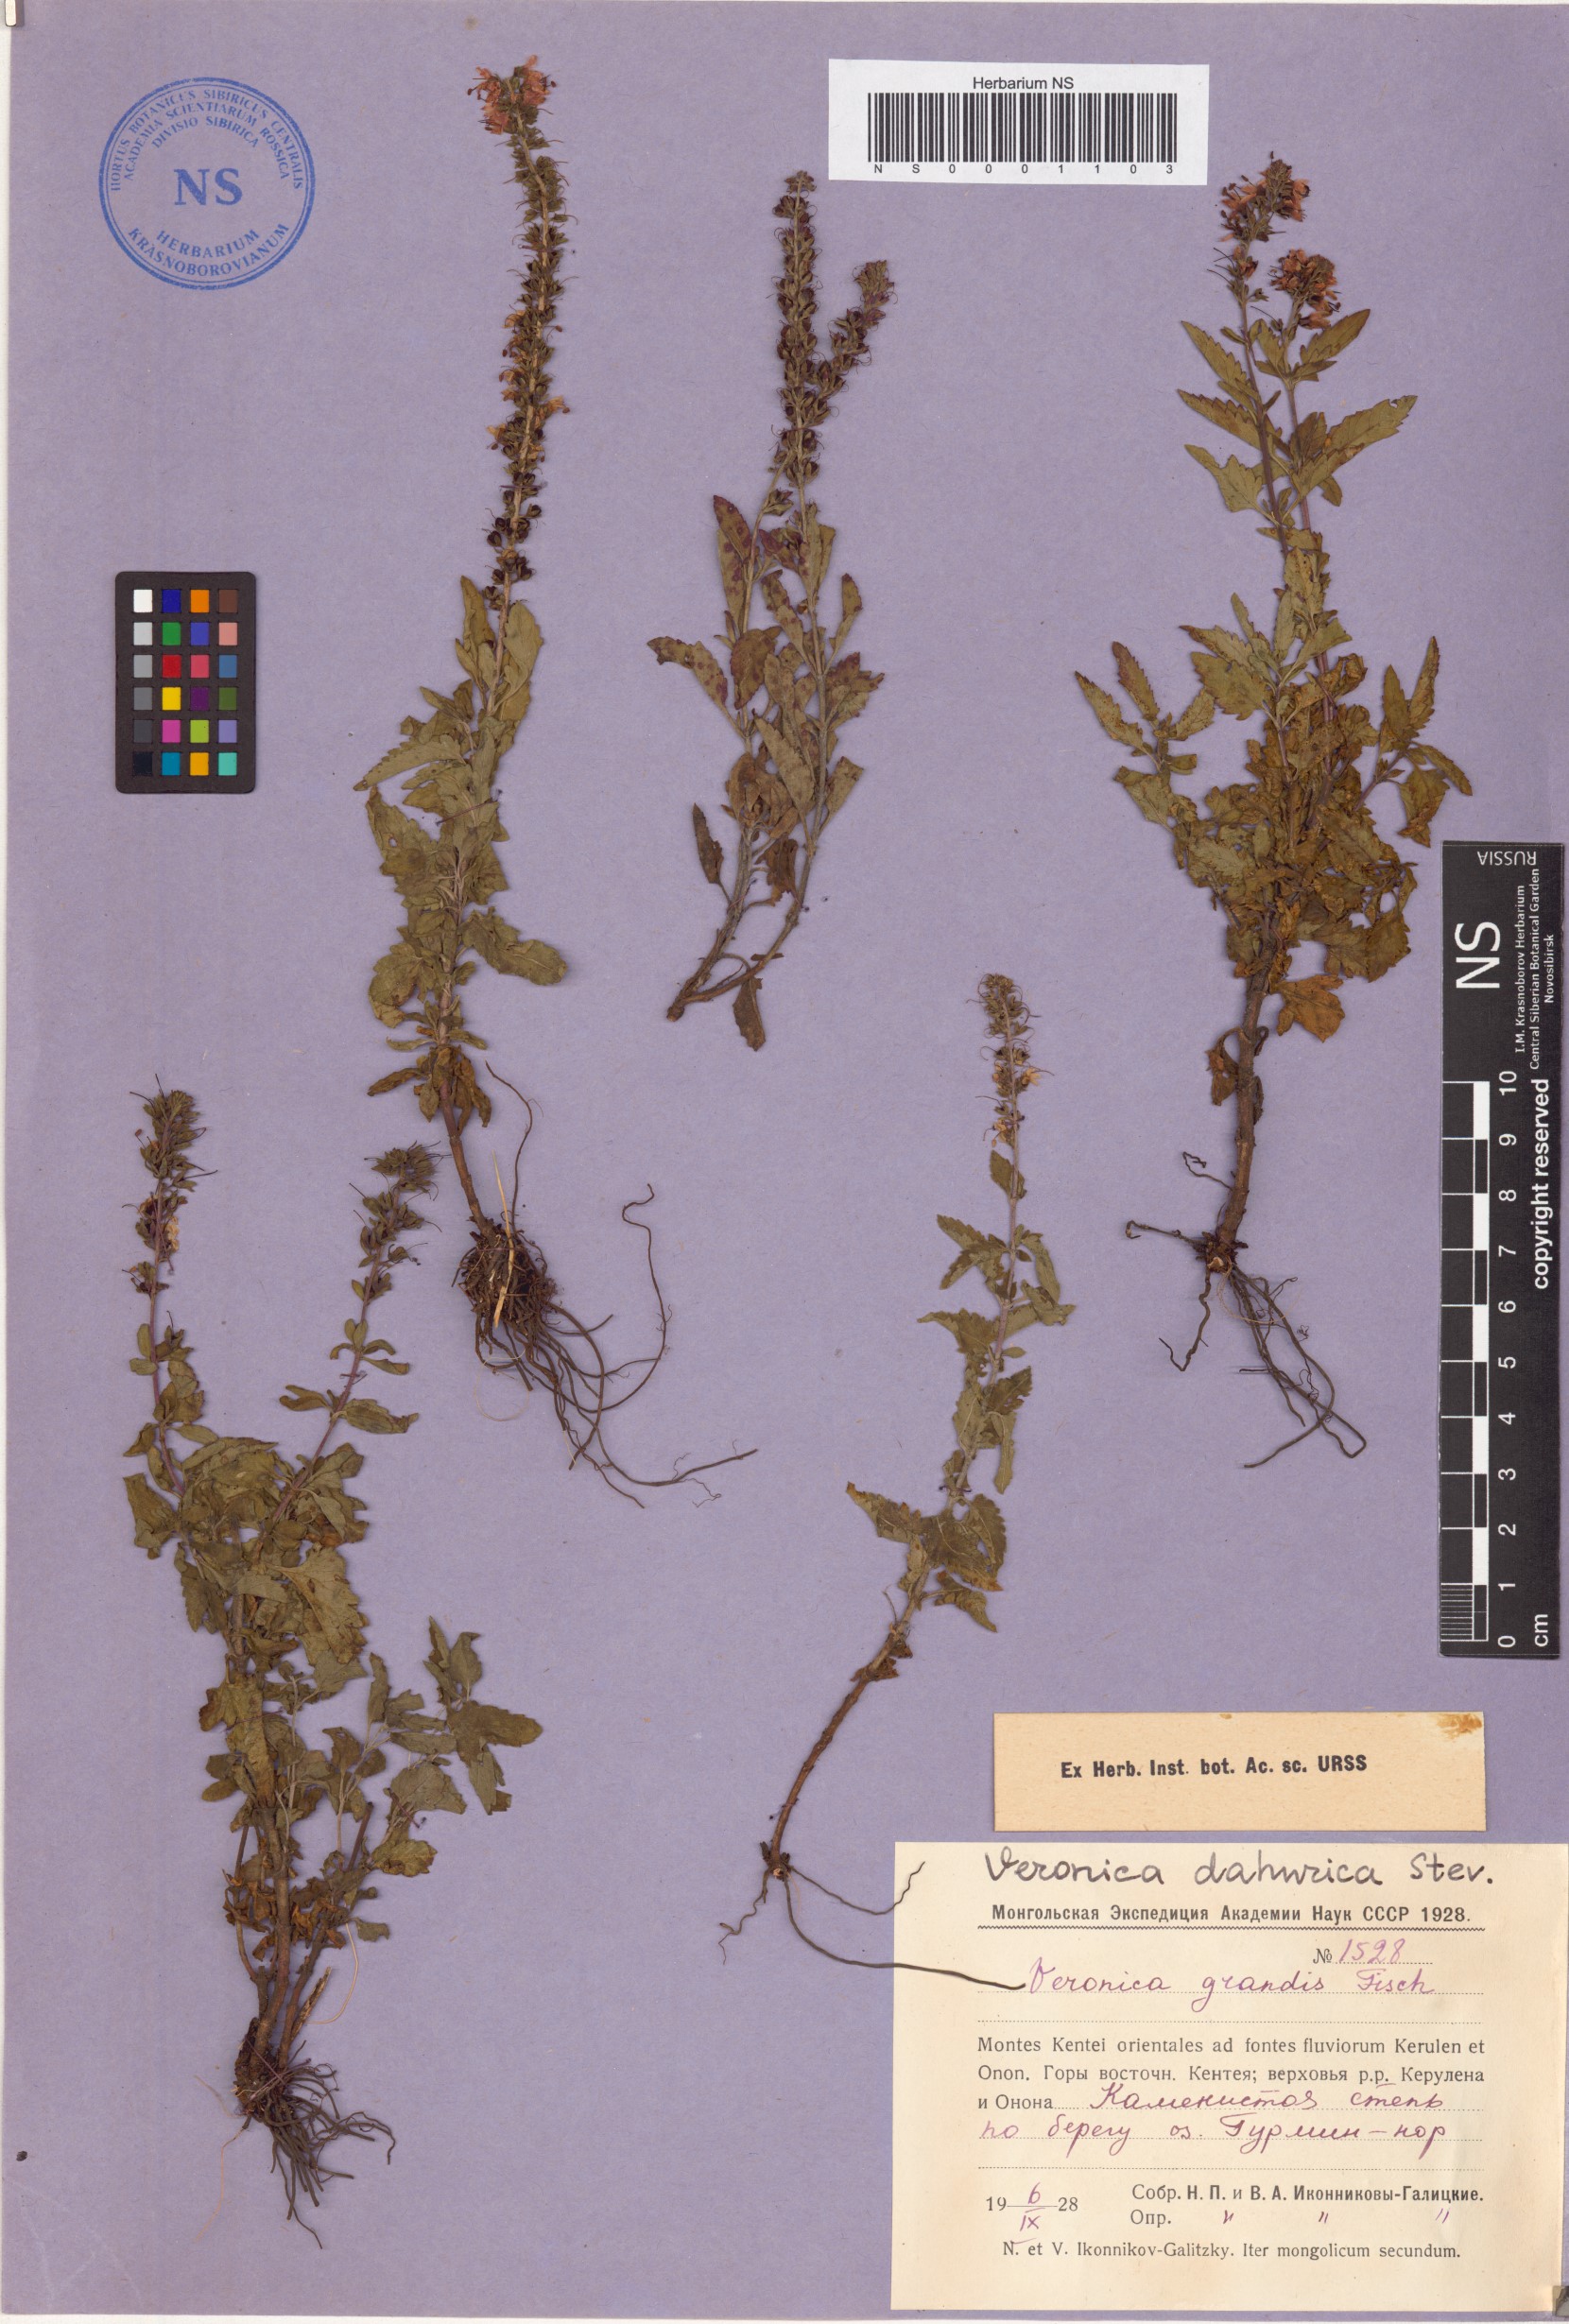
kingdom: Plantae
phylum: Tracheophyta
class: Magnoliopsida
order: Lamiales
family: Plantaginaceae
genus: Veronica
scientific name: Veronica daurica
